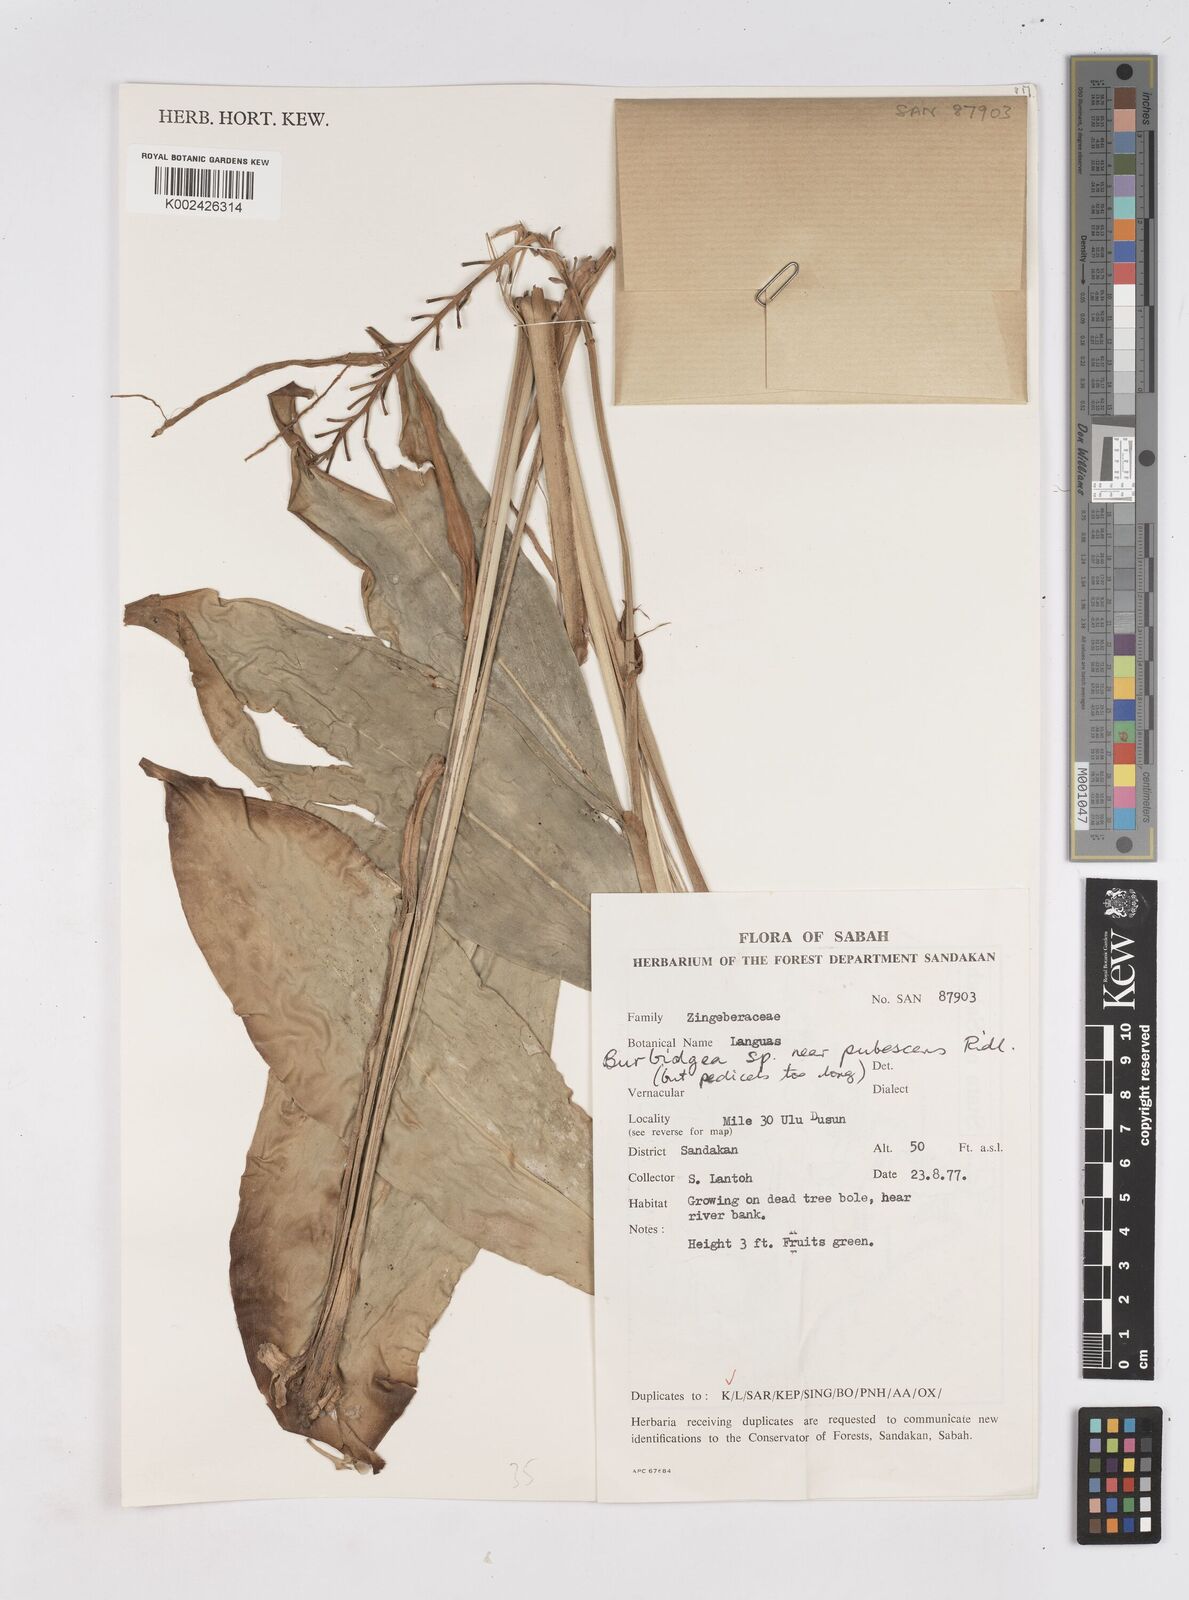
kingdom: Plantae
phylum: Tracheophyta
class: Liliopsida
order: Zingiberales
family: Zingiberaceae
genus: Burbidgea
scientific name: Burbidgea schizocheila
